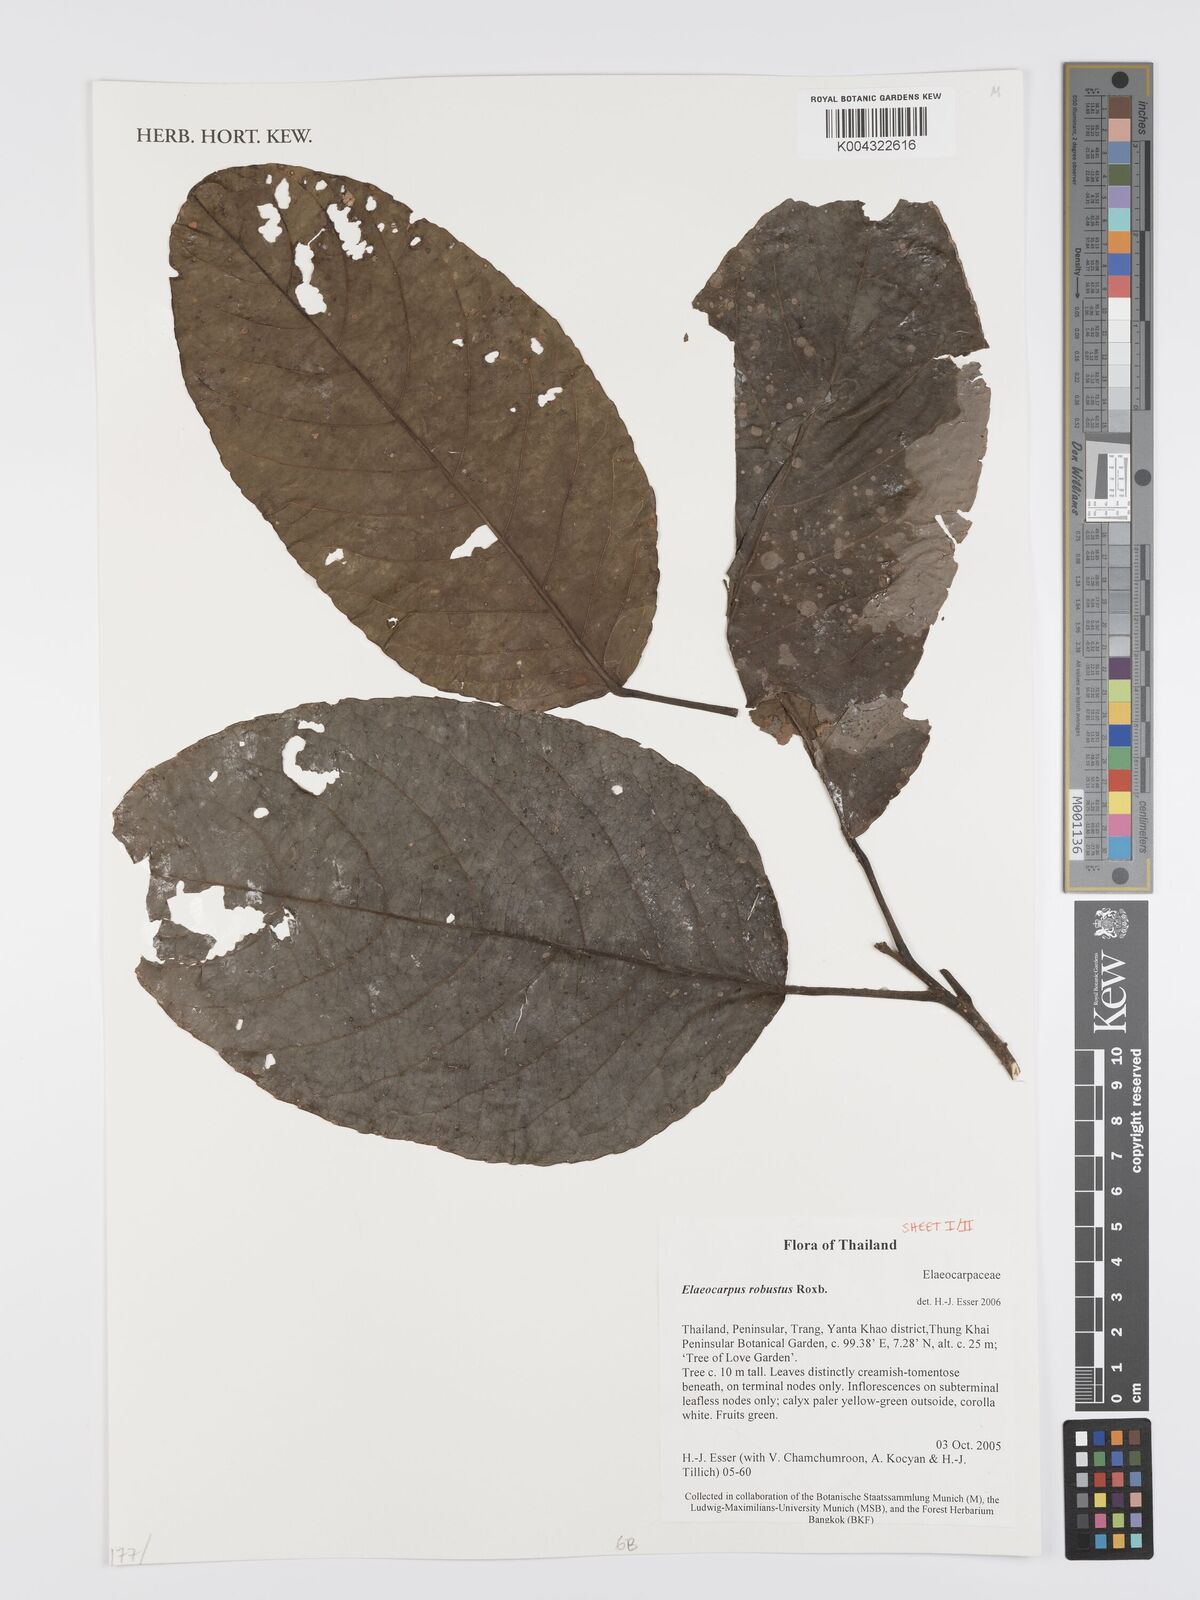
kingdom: Plantae
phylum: Tracheophyta
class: Magnoliopsida
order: Oxalidales
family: Elaeocarpaceae
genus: Elaeocarpus
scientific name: Elaeocarpus robustus
